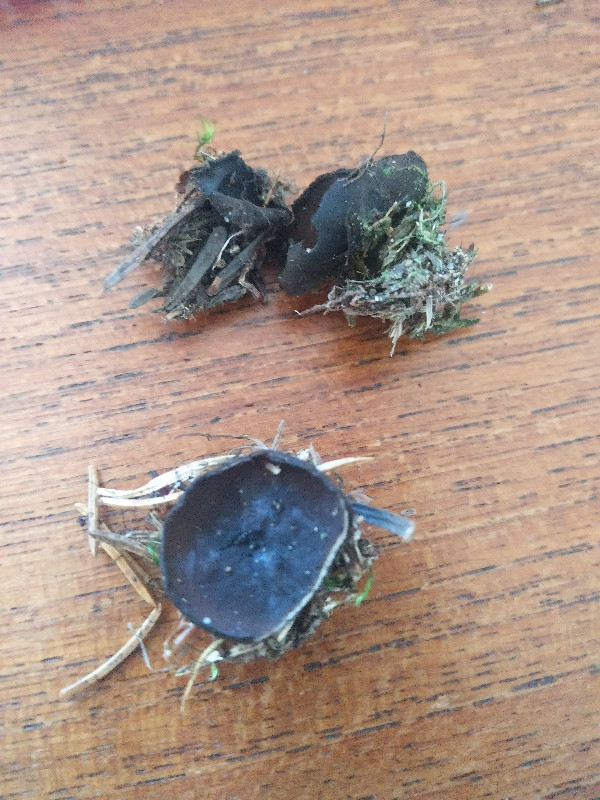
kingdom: Fungi
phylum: Ascomycota
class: Pezizomycetes
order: Pezizales
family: Sarcosomataceae
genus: Pseudoplectania
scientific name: Pseudoplectania nigrella
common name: almindelig sortbæger
